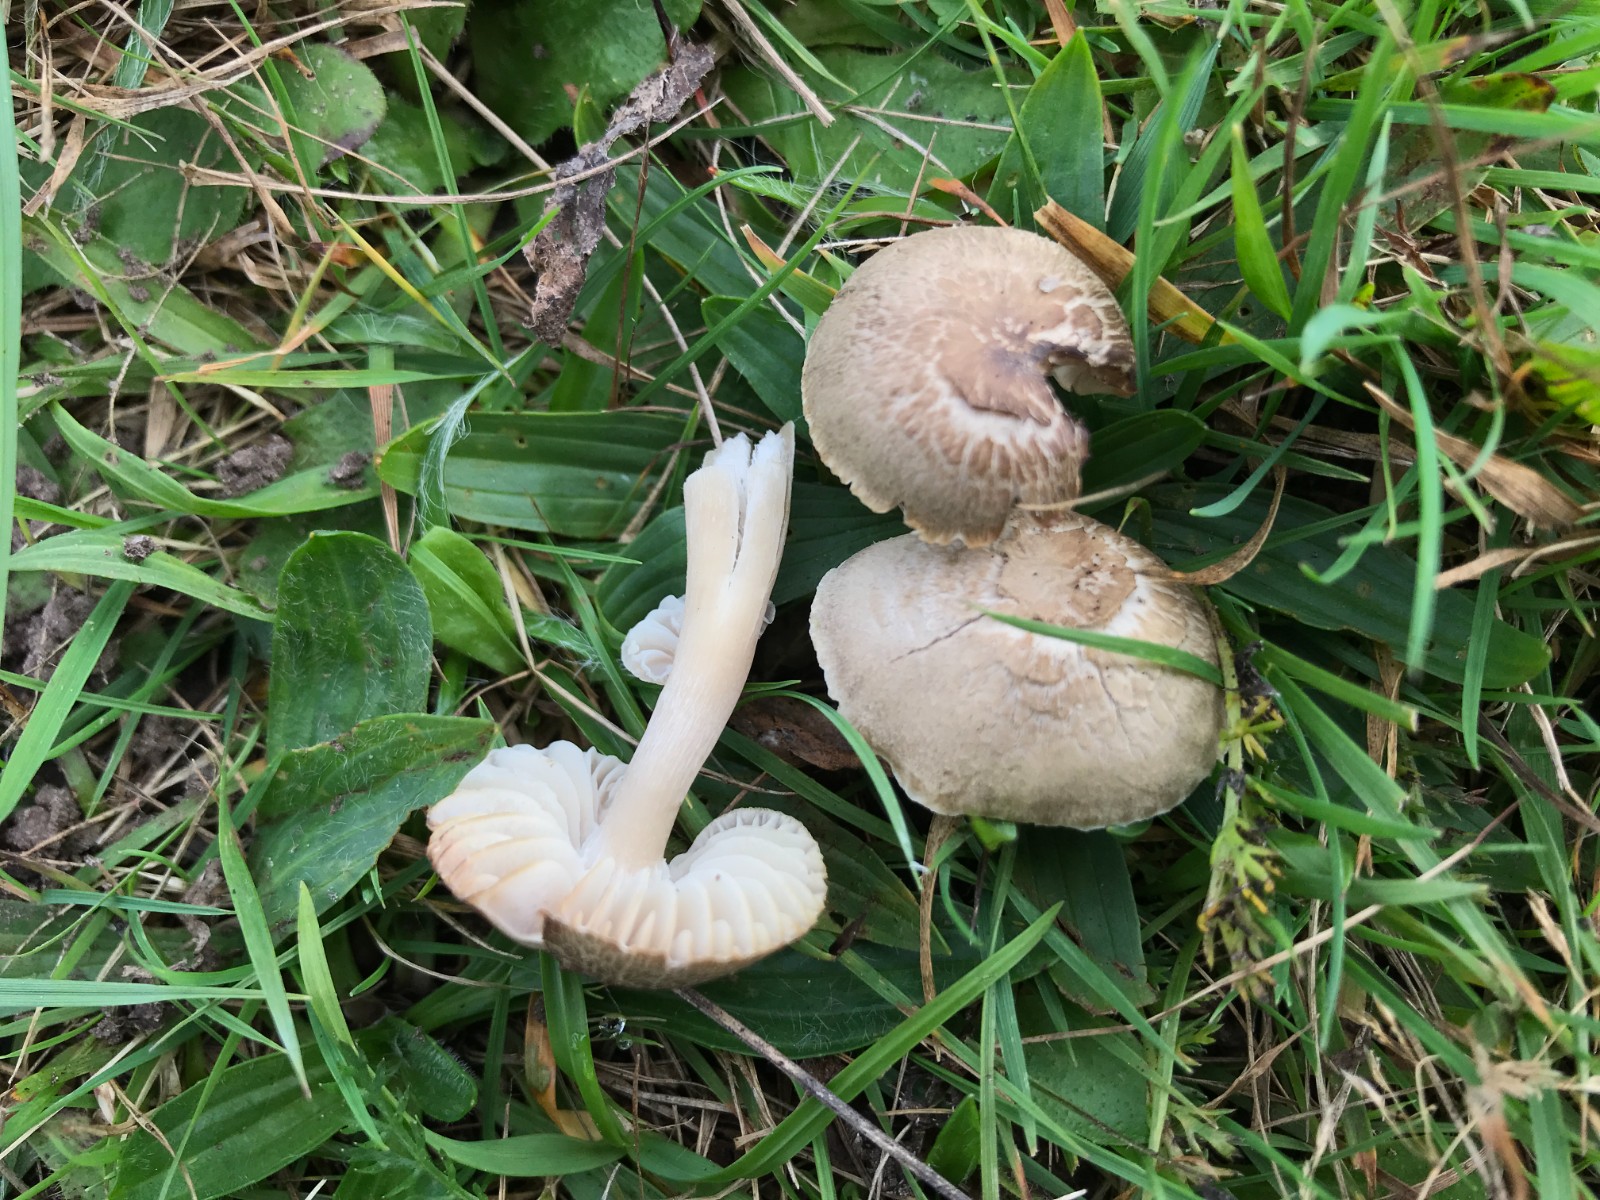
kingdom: Fungi
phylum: Basidiomycota
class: Agaricomycetes
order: Agaricales
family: Hygrophoraceae
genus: Neohygrocybe
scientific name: Neohygrocybe nitrata
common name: stinkende vokshat
